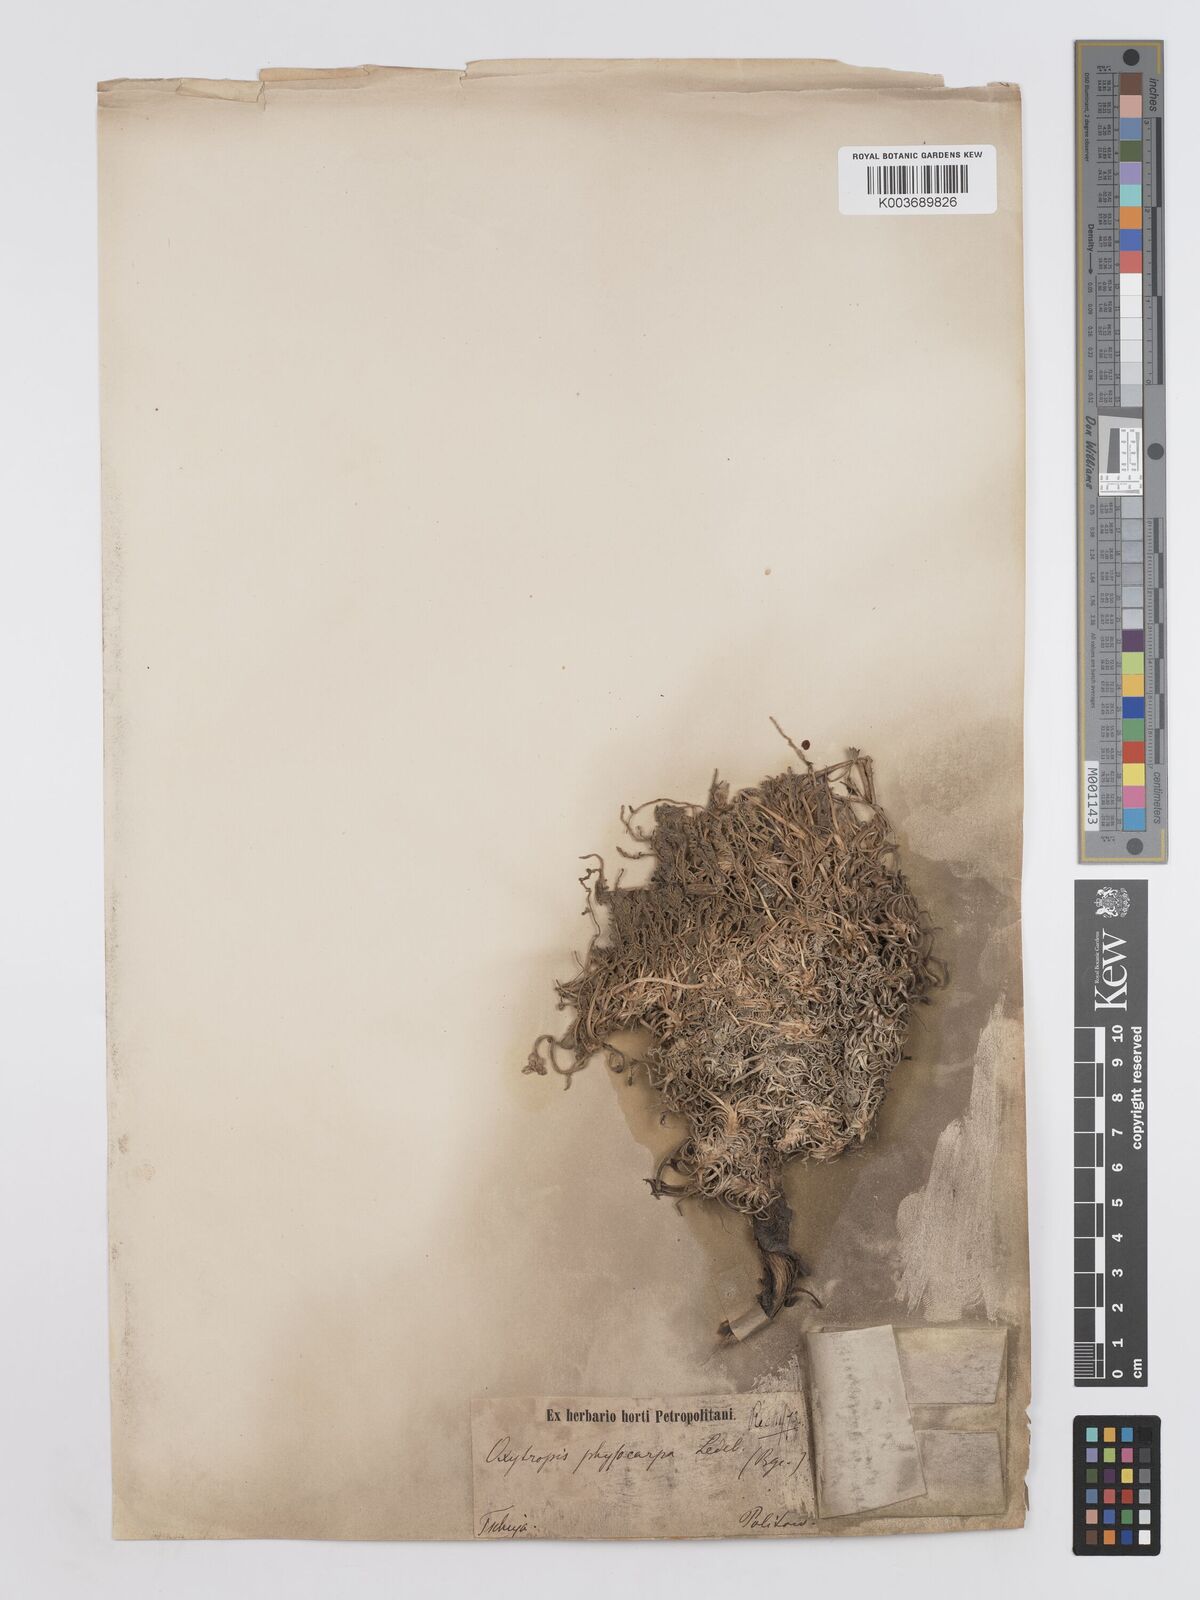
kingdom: Plantae
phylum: Tracheophyta
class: Magnoliopsida
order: Fabales
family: Fabaceae
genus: Oxytropis
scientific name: Oxytropis physocarpa
